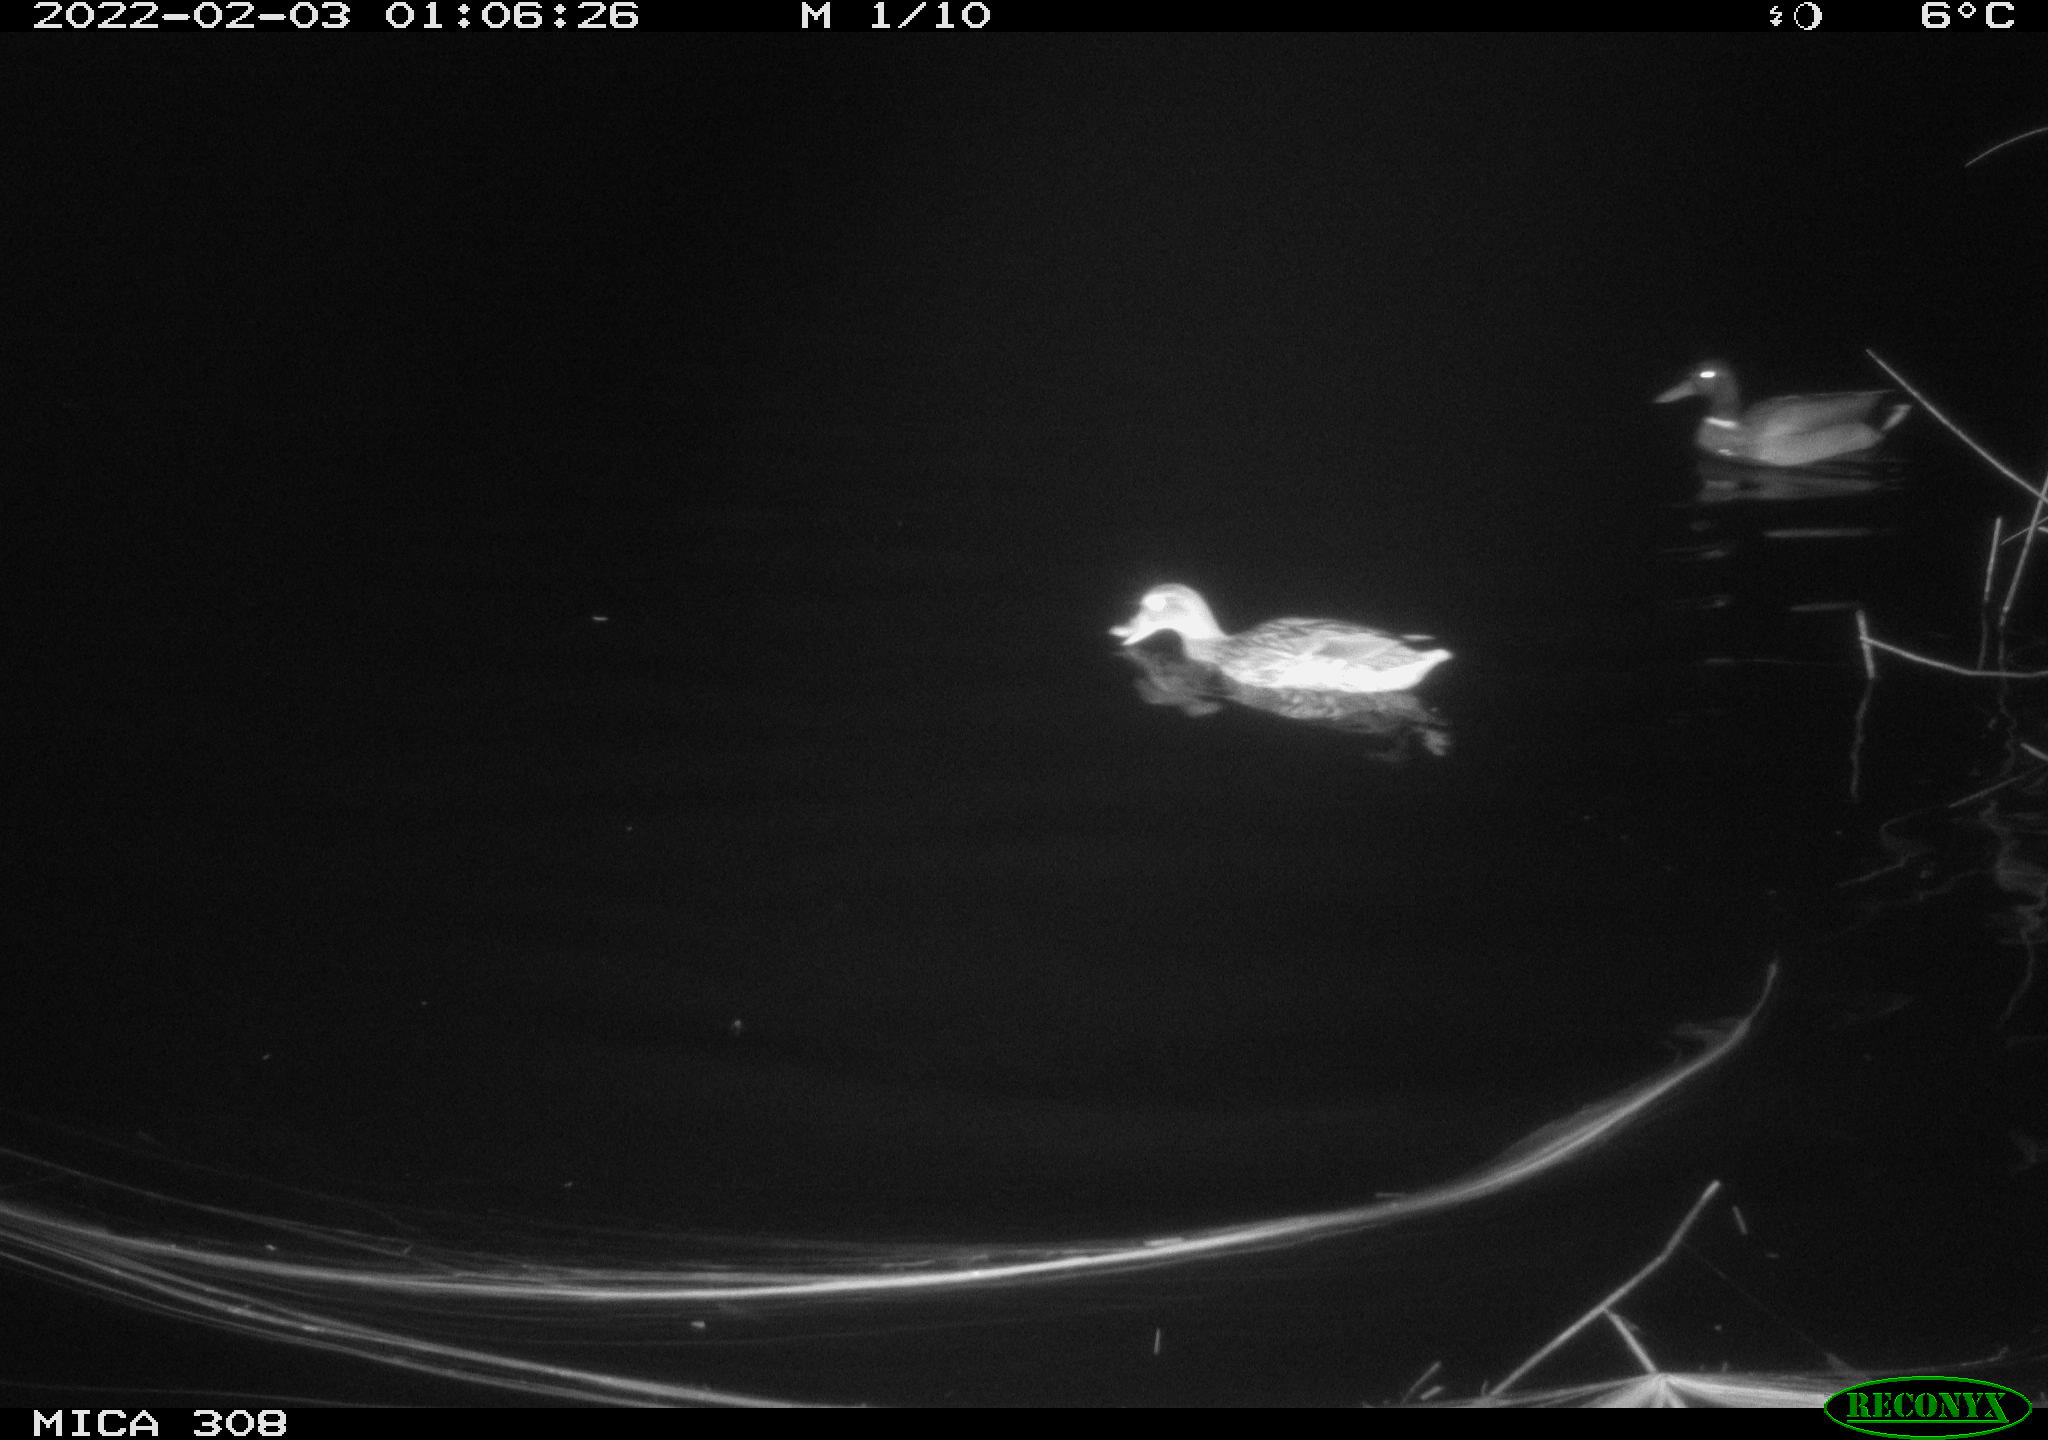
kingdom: Animalia
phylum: Chordata
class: Aves
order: Anseriformes
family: Anatidae
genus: Anas
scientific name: Anas
